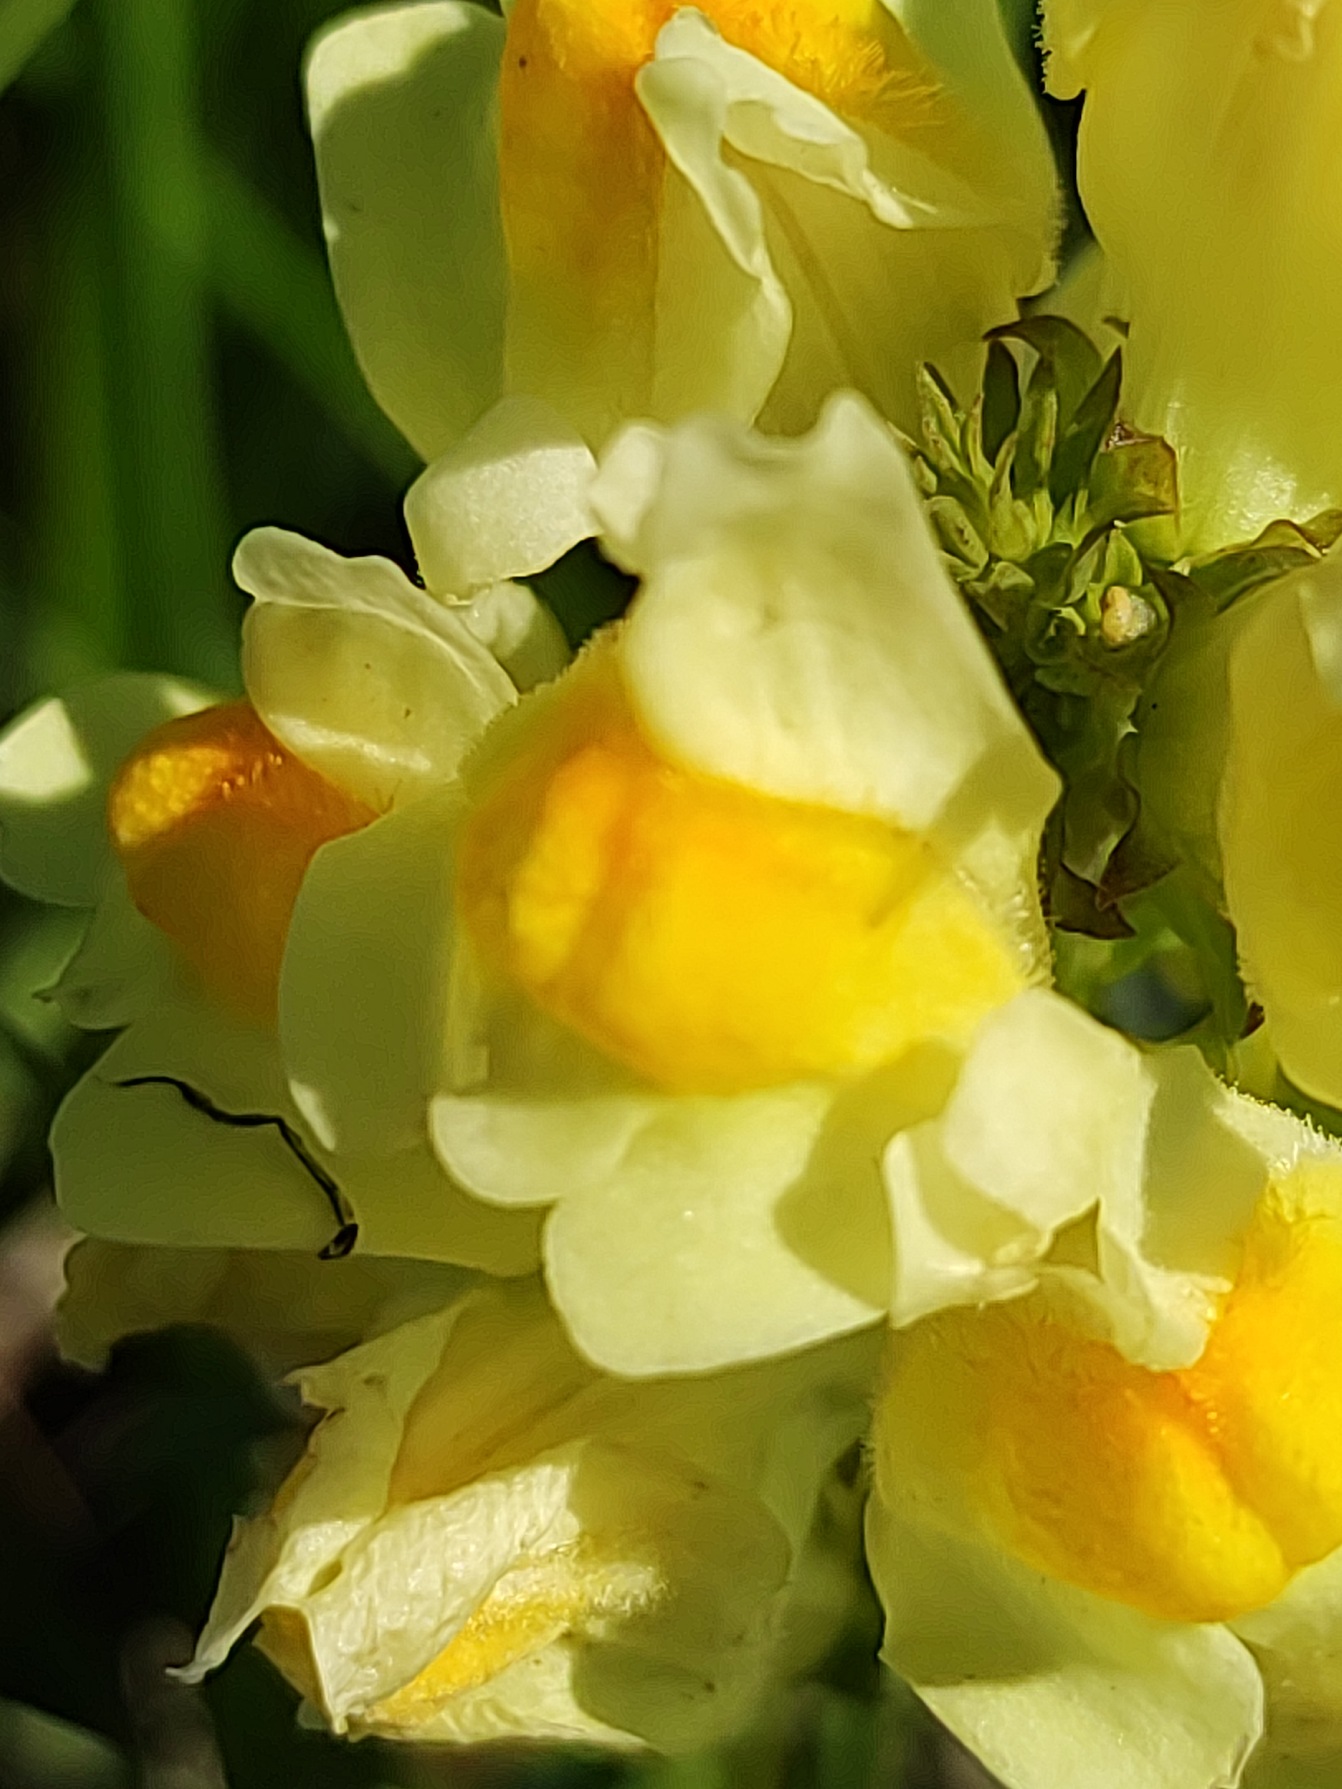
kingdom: Plantae
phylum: Tracheophyta
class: Magnoliopsida
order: Lamiales
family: Plantaginaceae
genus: Linaria
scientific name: Linaria vulgaris
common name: Almindelig torskemund
